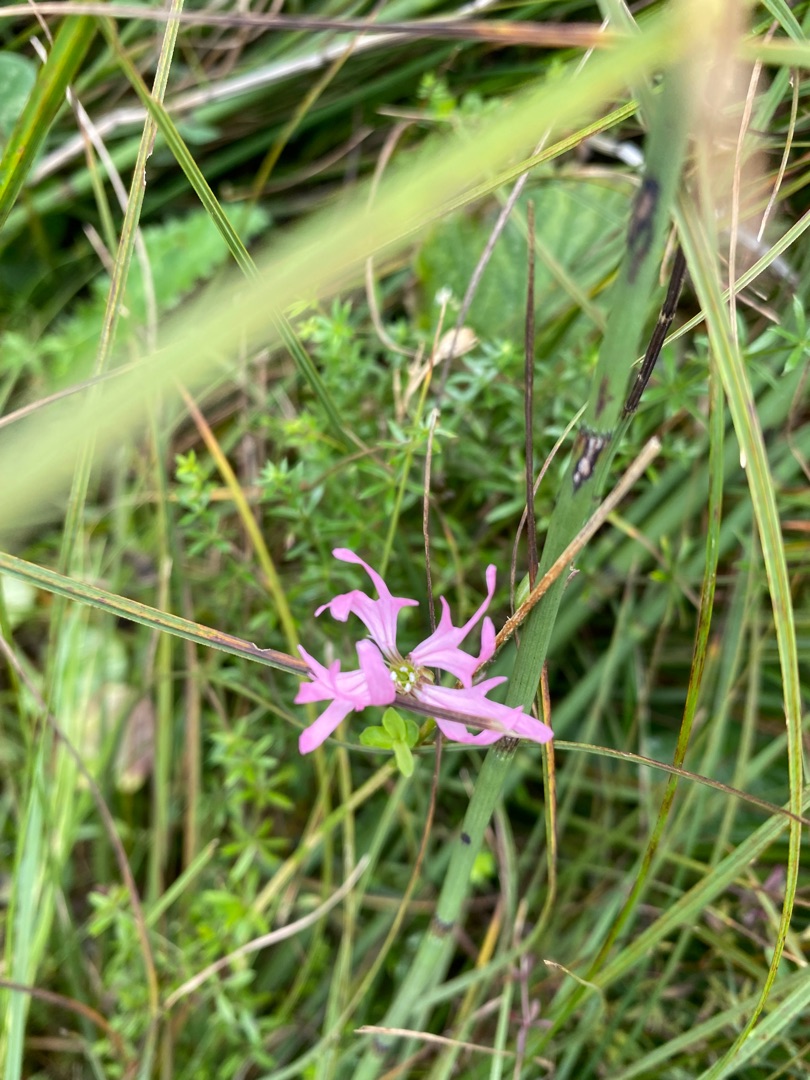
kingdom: Plantae
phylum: Tracheophyta
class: Magnoliopsida
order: Caryophyllales
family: Caryophyllaceae
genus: Silene
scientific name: Silene flos-cuculi
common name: Trævlekrone
